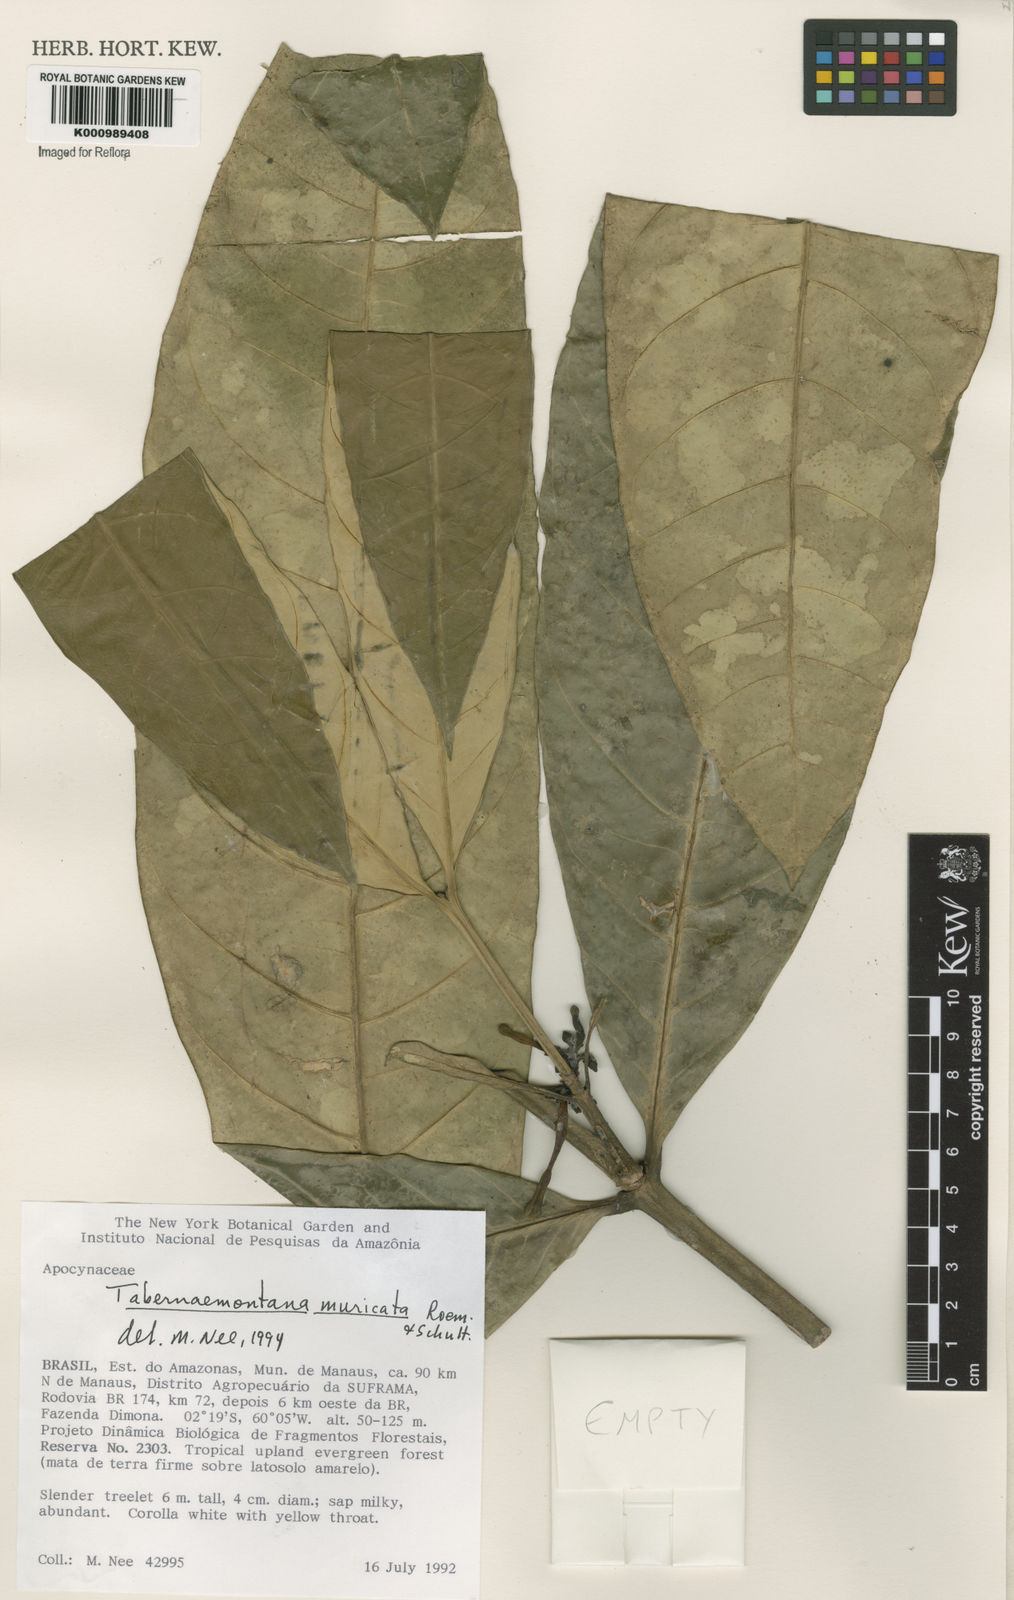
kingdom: Plantae
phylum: Tracheophyta
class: Magnoliopsida
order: Gentianales
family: Apocynaceae
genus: Tabernaemontana
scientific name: Tabernaemontana muricata
